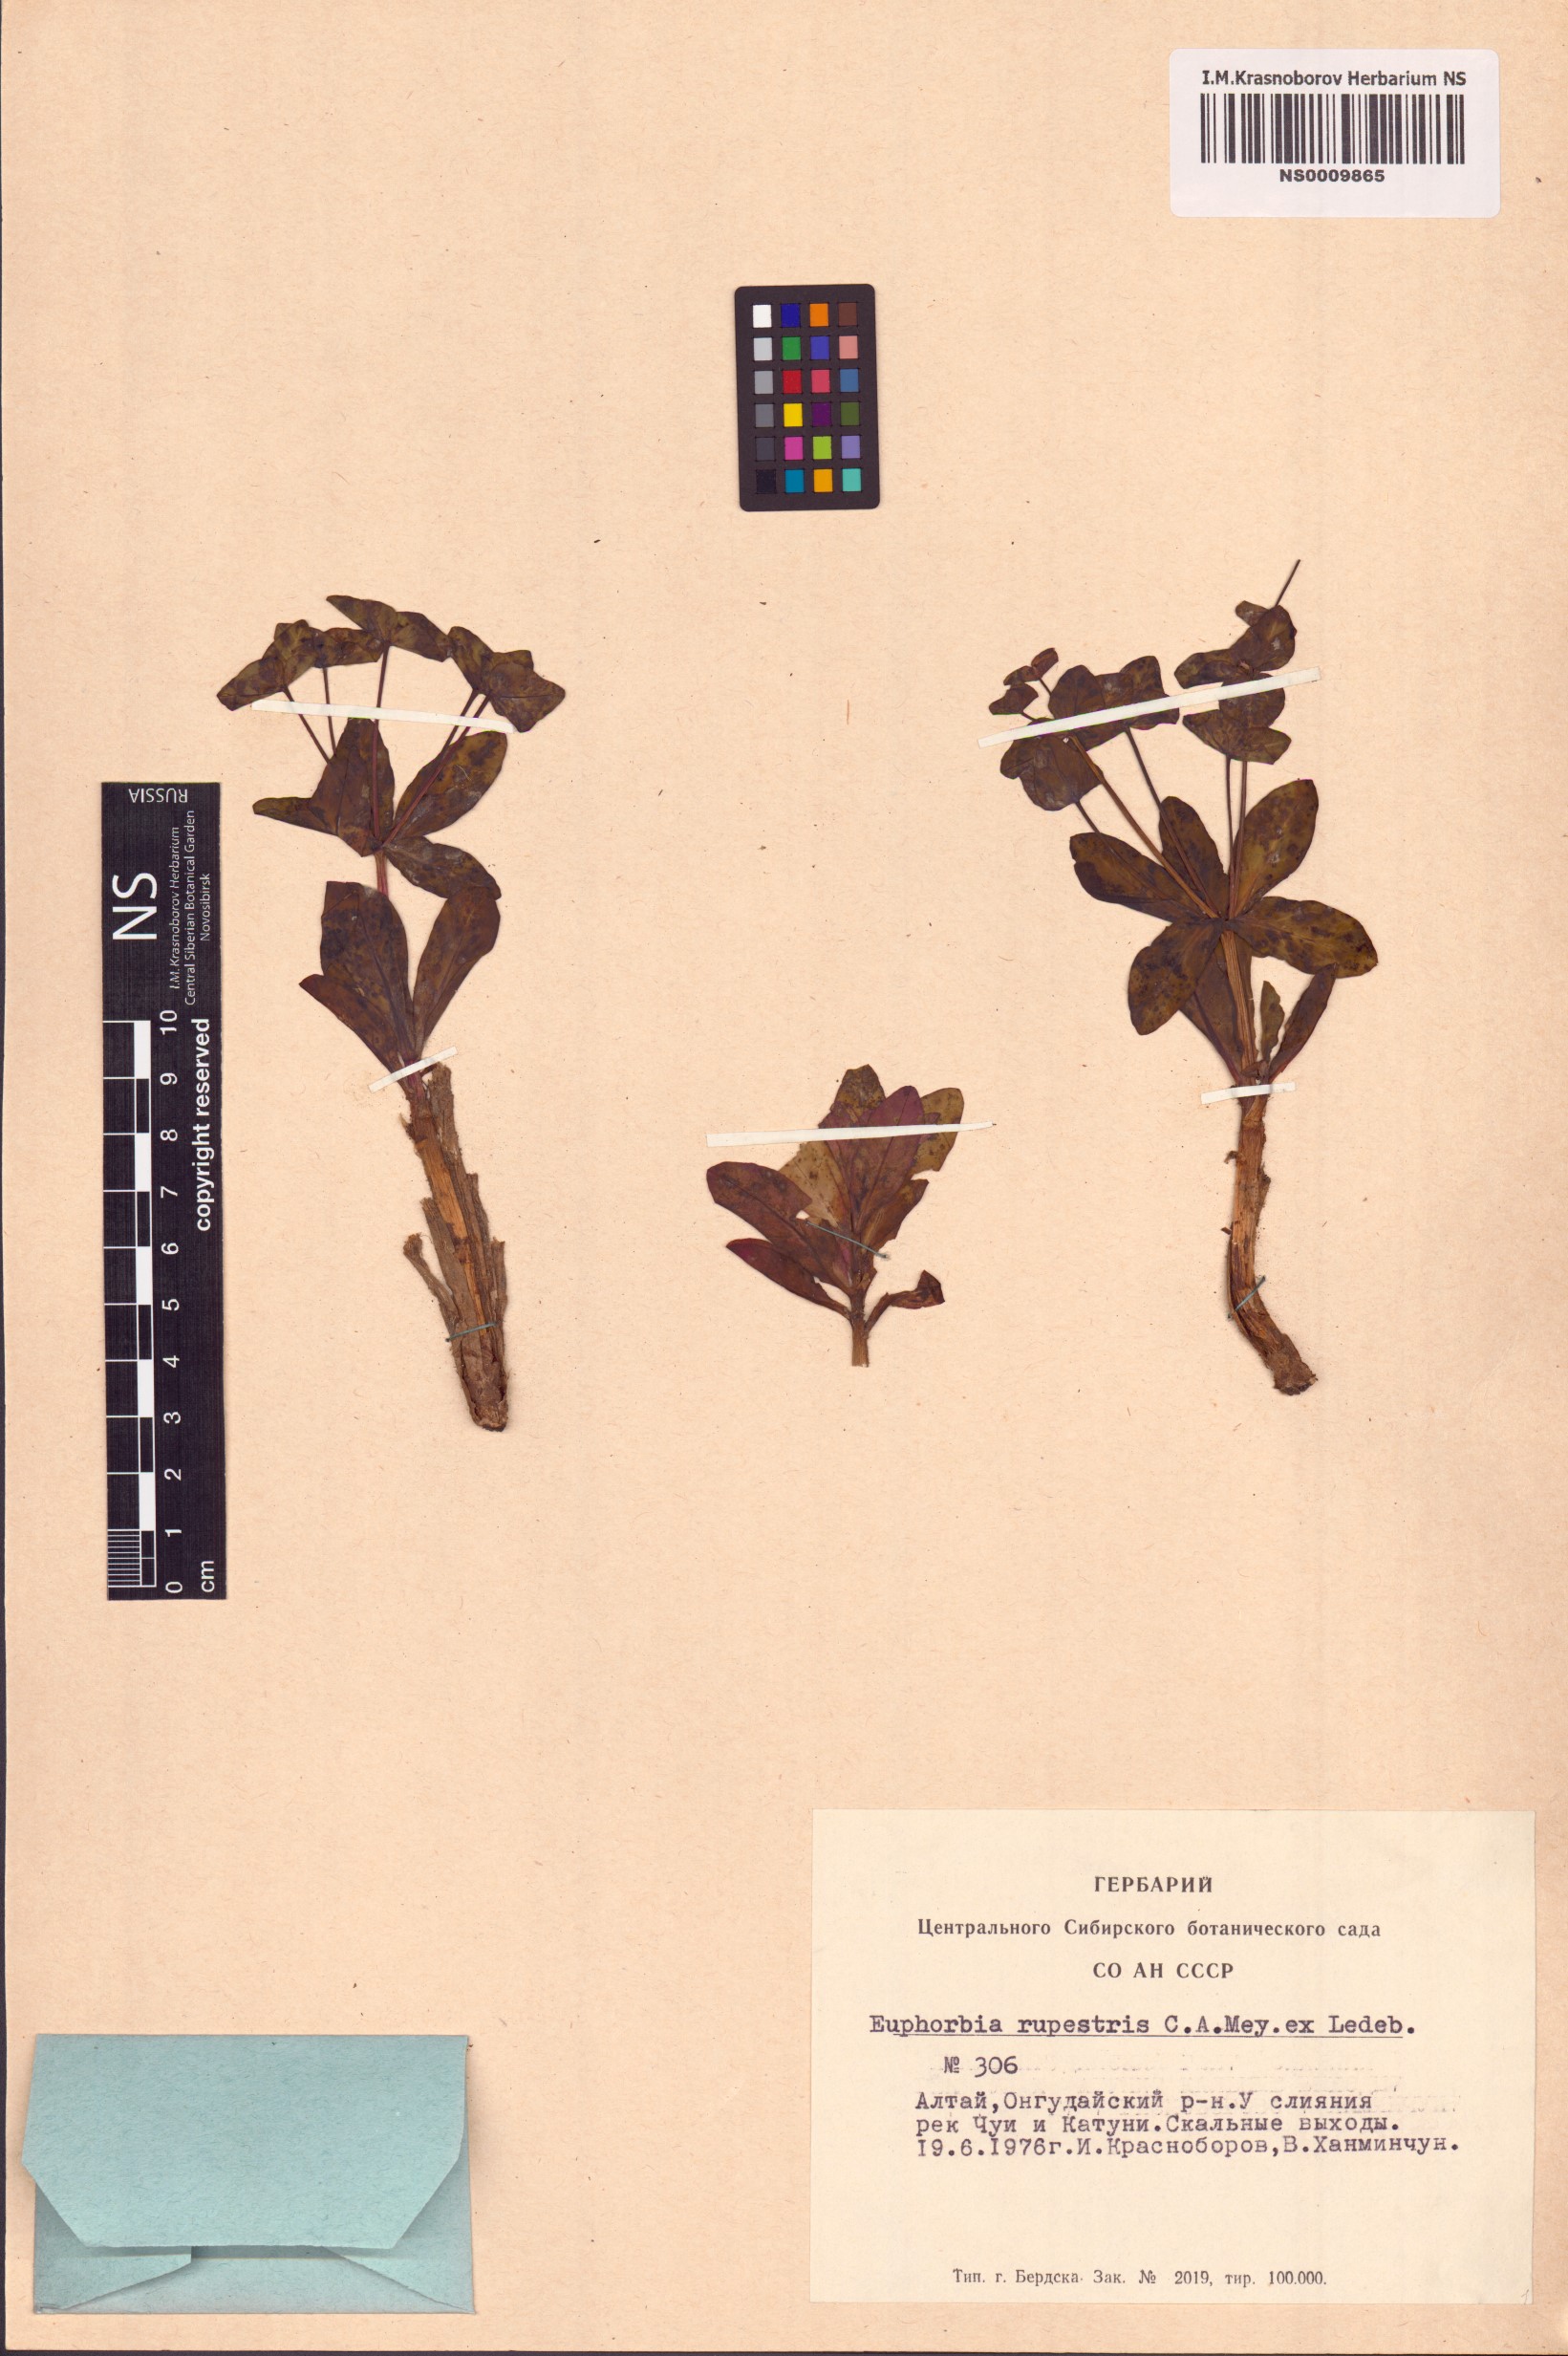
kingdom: Plantae
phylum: Tracheophyta
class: Magnoliopsida
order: Malpighiales
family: Euphorbiaceae
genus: Euphorbia
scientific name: Euphorbia rupestris
